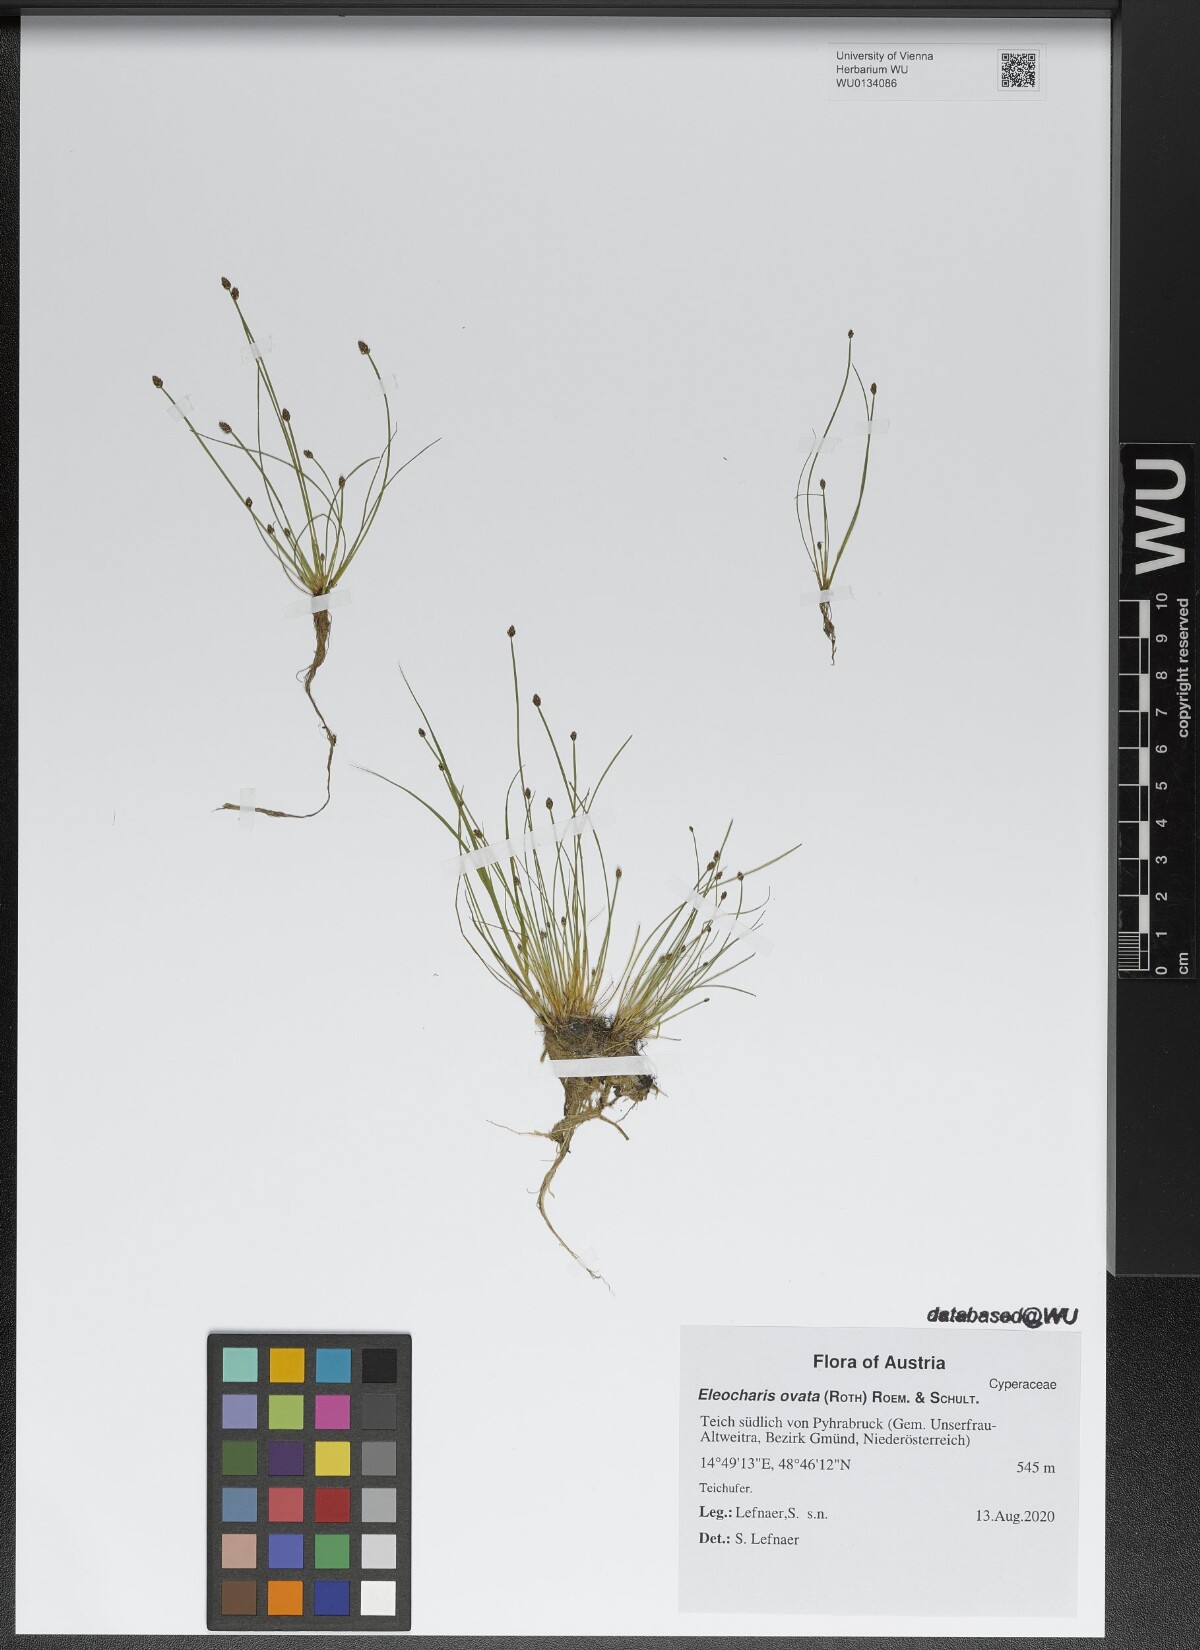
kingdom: Plantae
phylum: Tracheophyta
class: Liliopsida
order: Poales
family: Cyperaceae
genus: Eleocharis
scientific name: Eleocharis ovata
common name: Oval spike-rush
